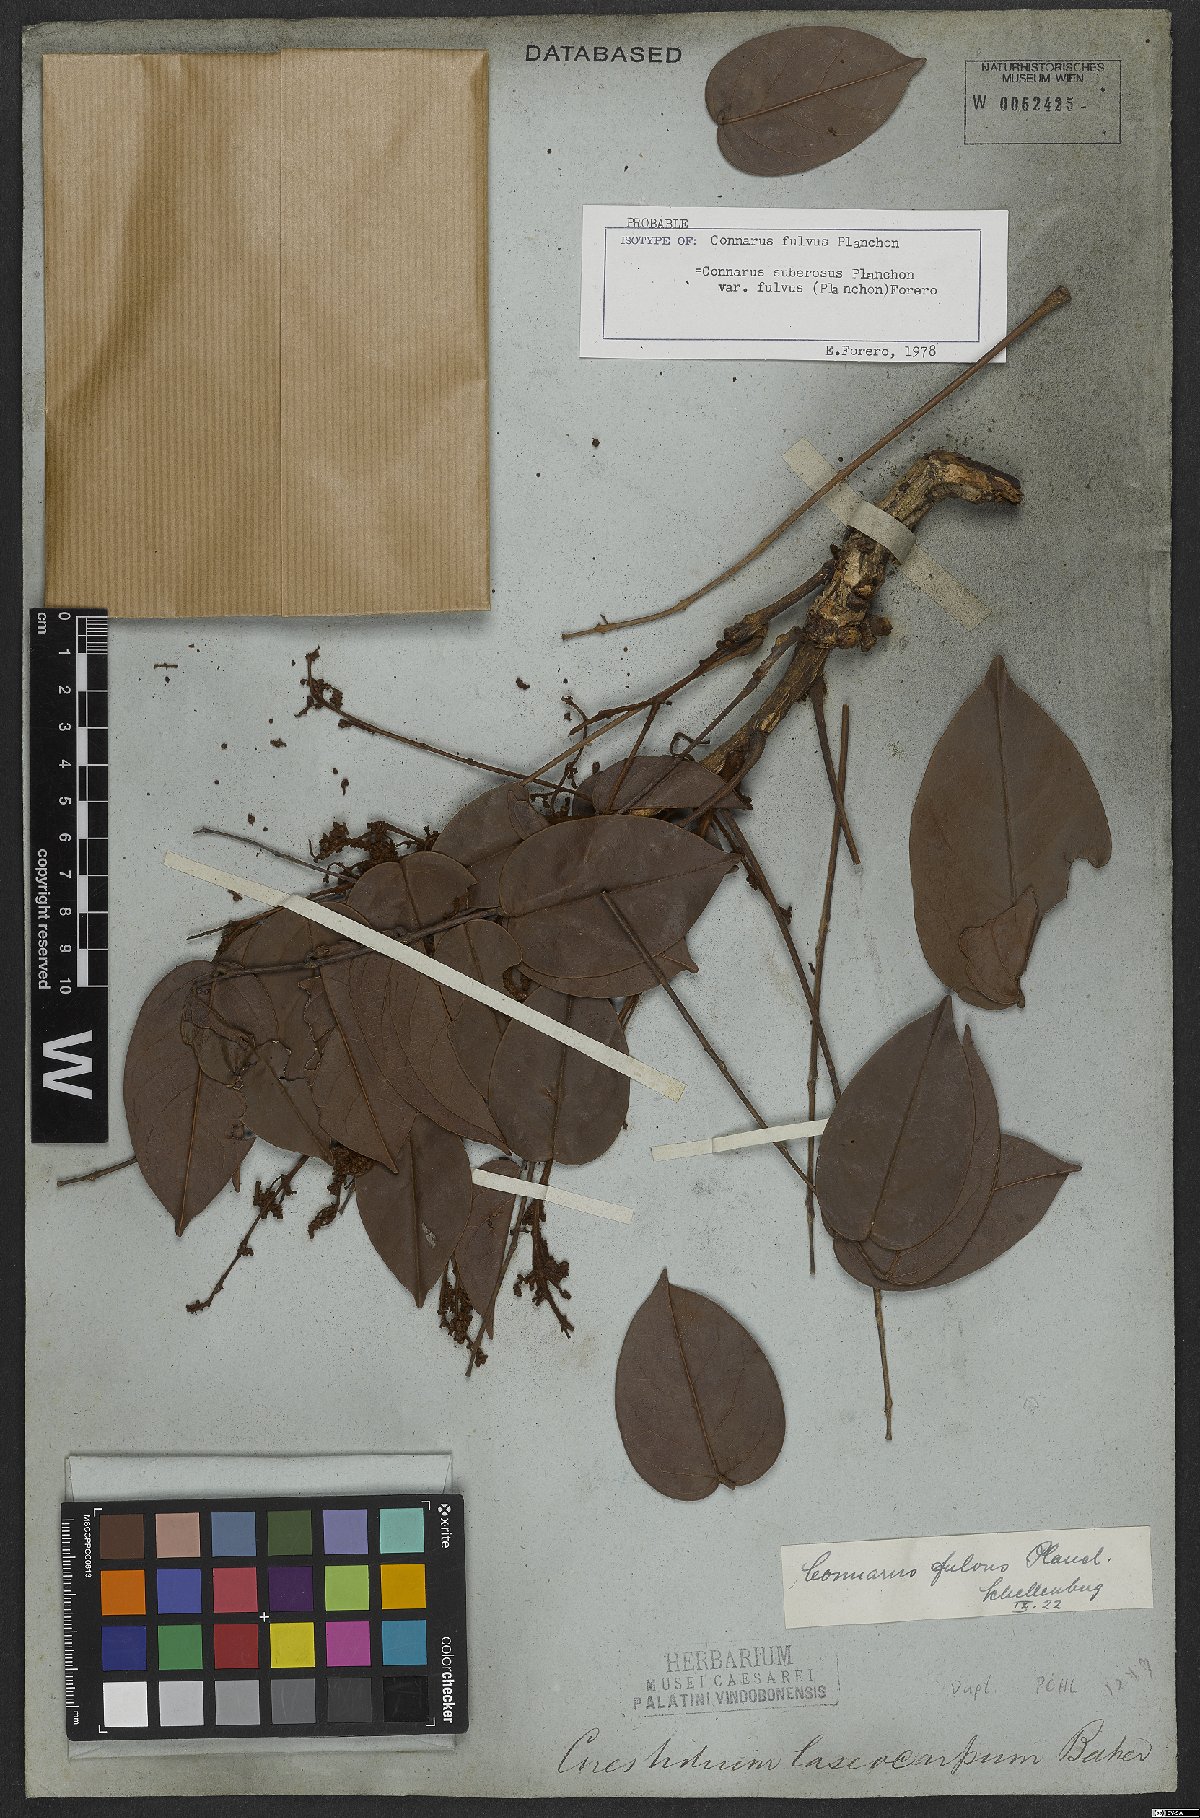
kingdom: Plantae
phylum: Tracheophyta
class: Magnoliopsida
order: Oxalidales
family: Connaraceae
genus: Connarus
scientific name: Connarus suberosus
